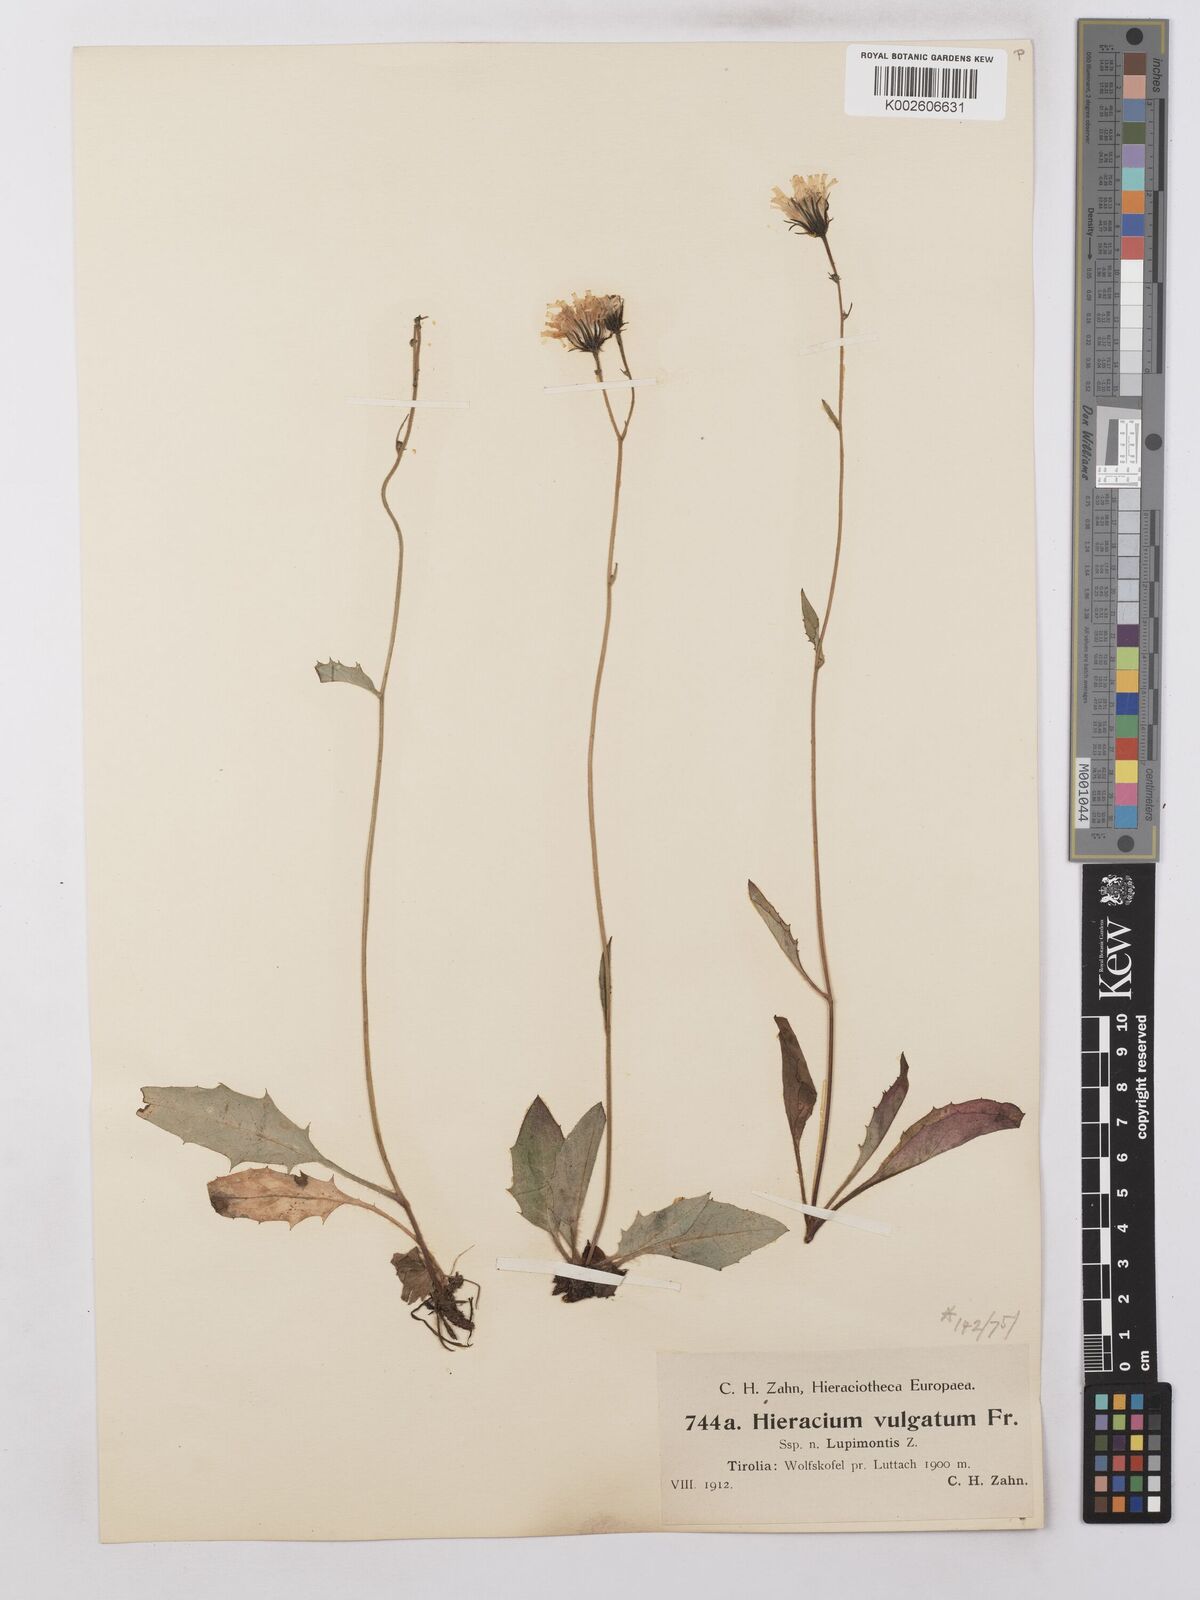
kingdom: Plantae
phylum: Tracheophyta
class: Magnoliopsida
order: Asterales
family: Asteraceae
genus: Hieracium
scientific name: Hieracium lachenalii
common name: Common hawkweed
